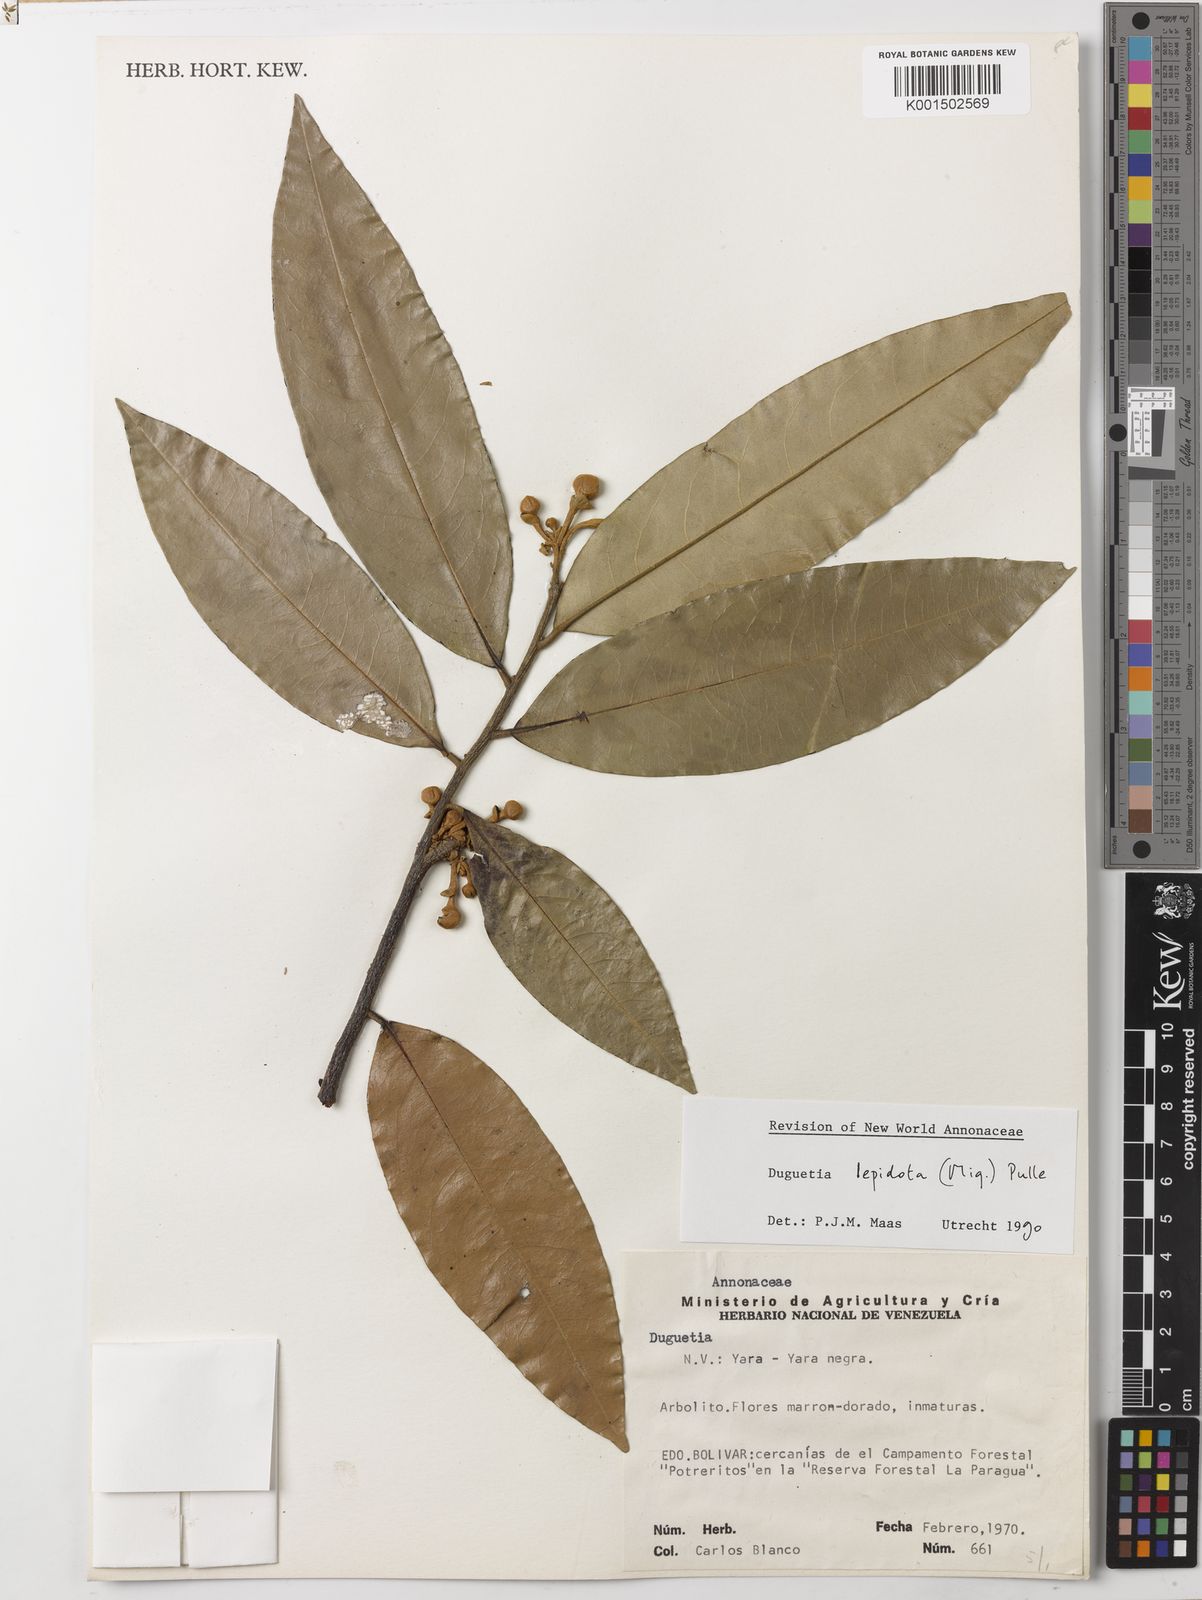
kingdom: Plantae
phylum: Tracheophyta
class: Magnoliopsida
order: Magnoliales
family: Annonaceae
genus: Duguetia
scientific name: Duguetia lepidota
